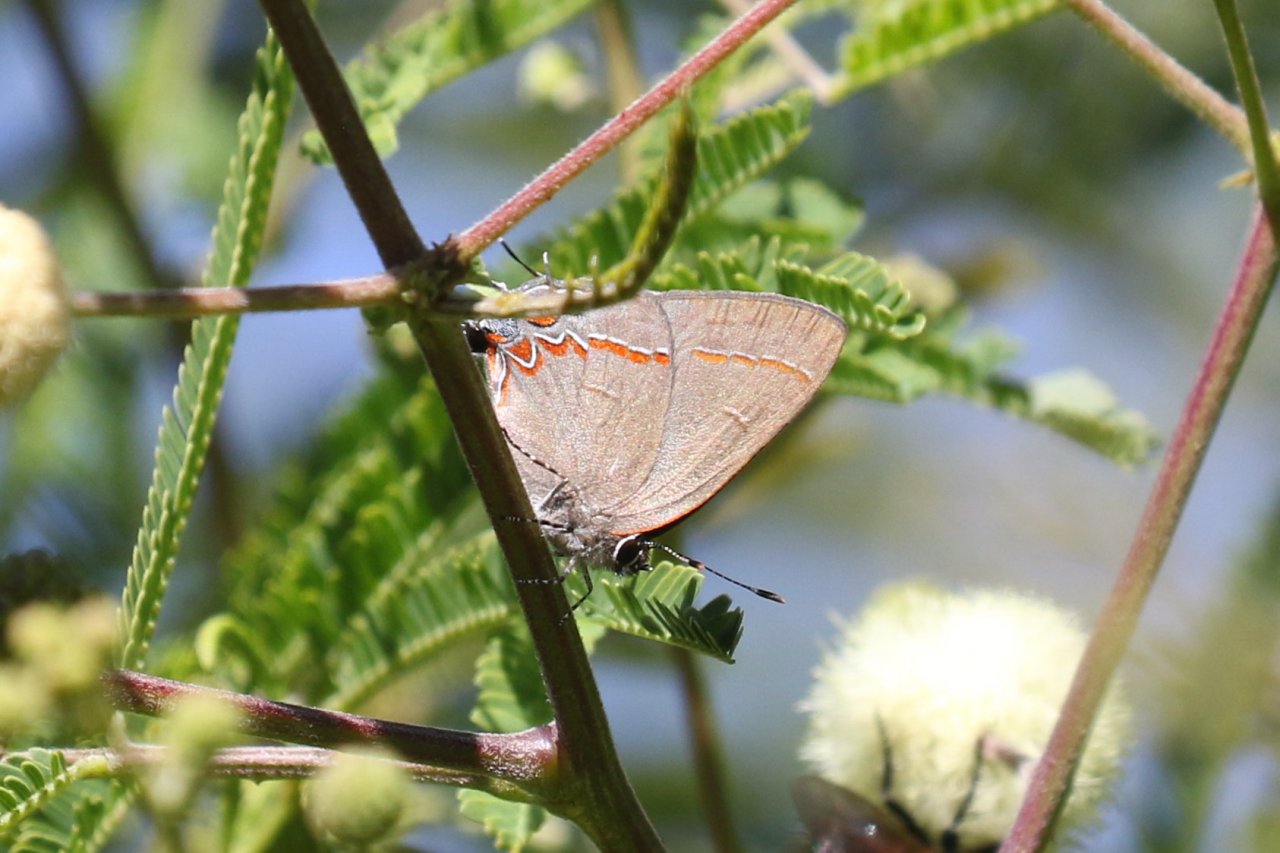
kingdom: Animalia
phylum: Arthropoda
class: Insecta
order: Lepidoptera
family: Lycaenidae
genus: Calycopis
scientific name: Calycopis isobeon
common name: Dusky-blue Groundstreak
